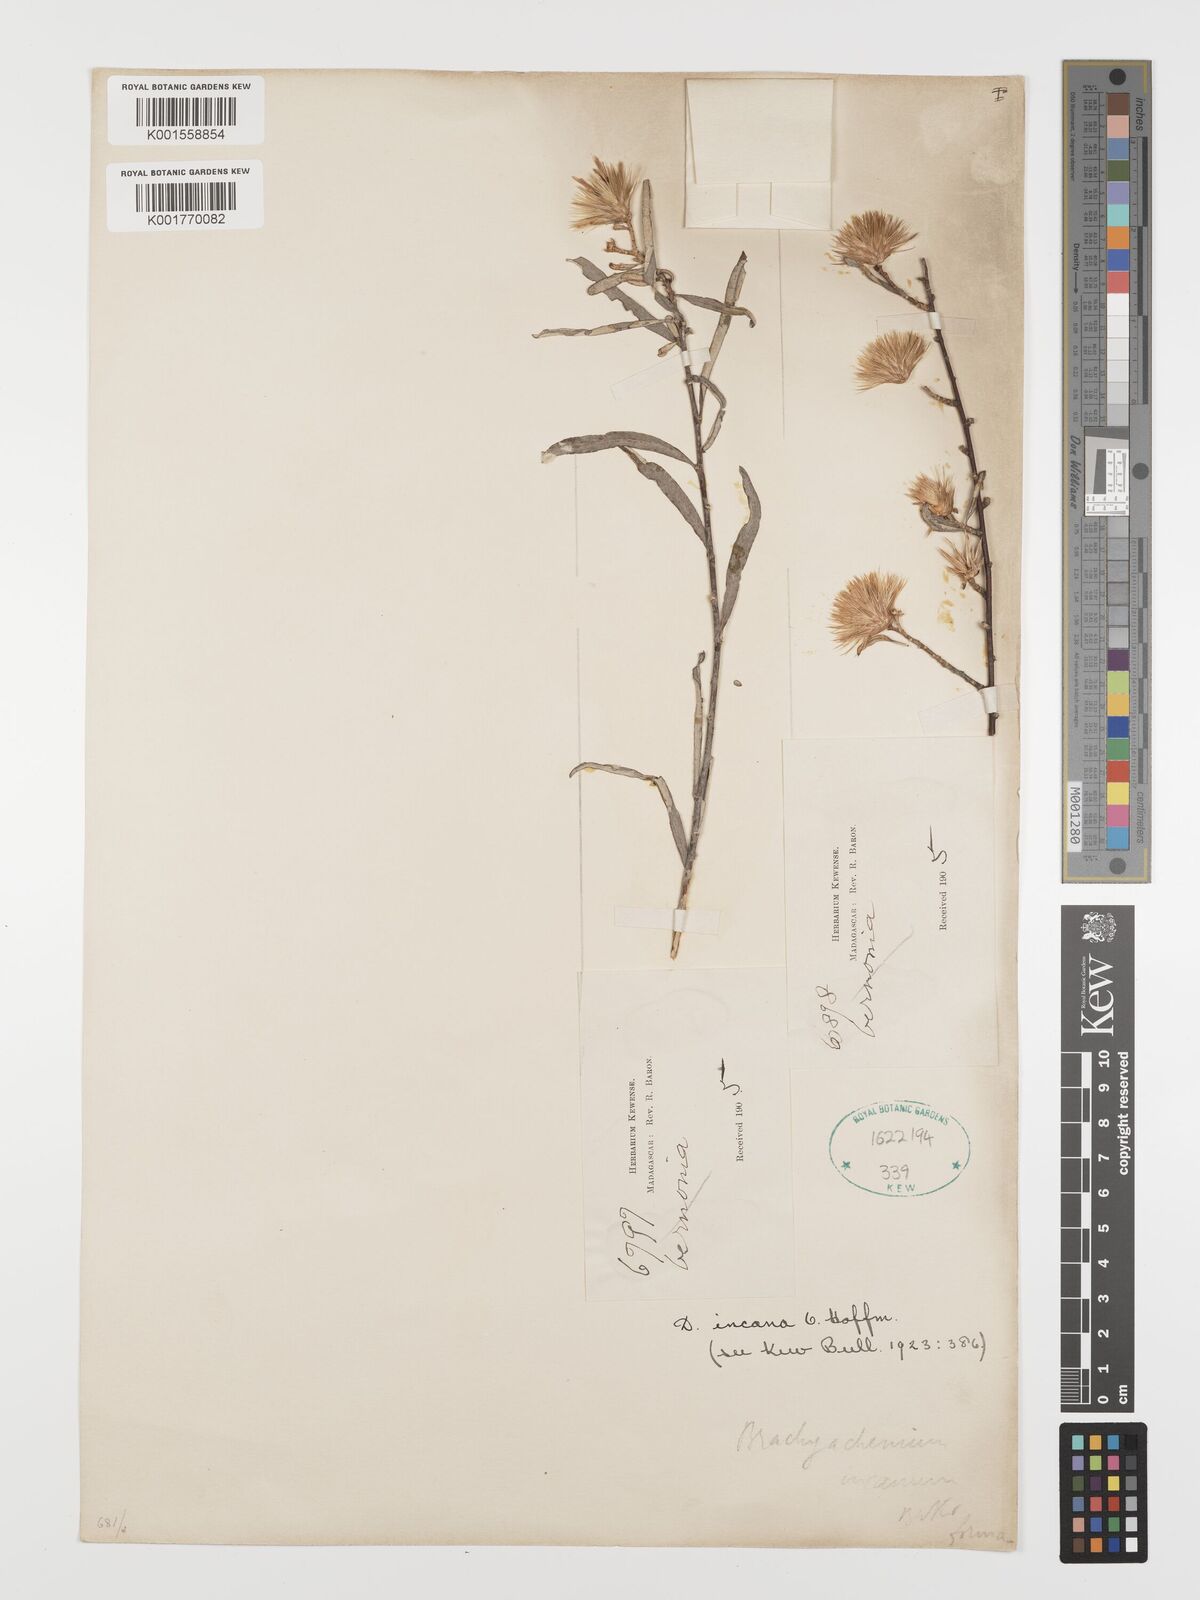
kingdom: Plantae
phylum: Tracheophyta
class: Magnoliopsida
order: Asterales
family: Asteraceae
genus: Dicoma
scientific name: Dicoma incana
